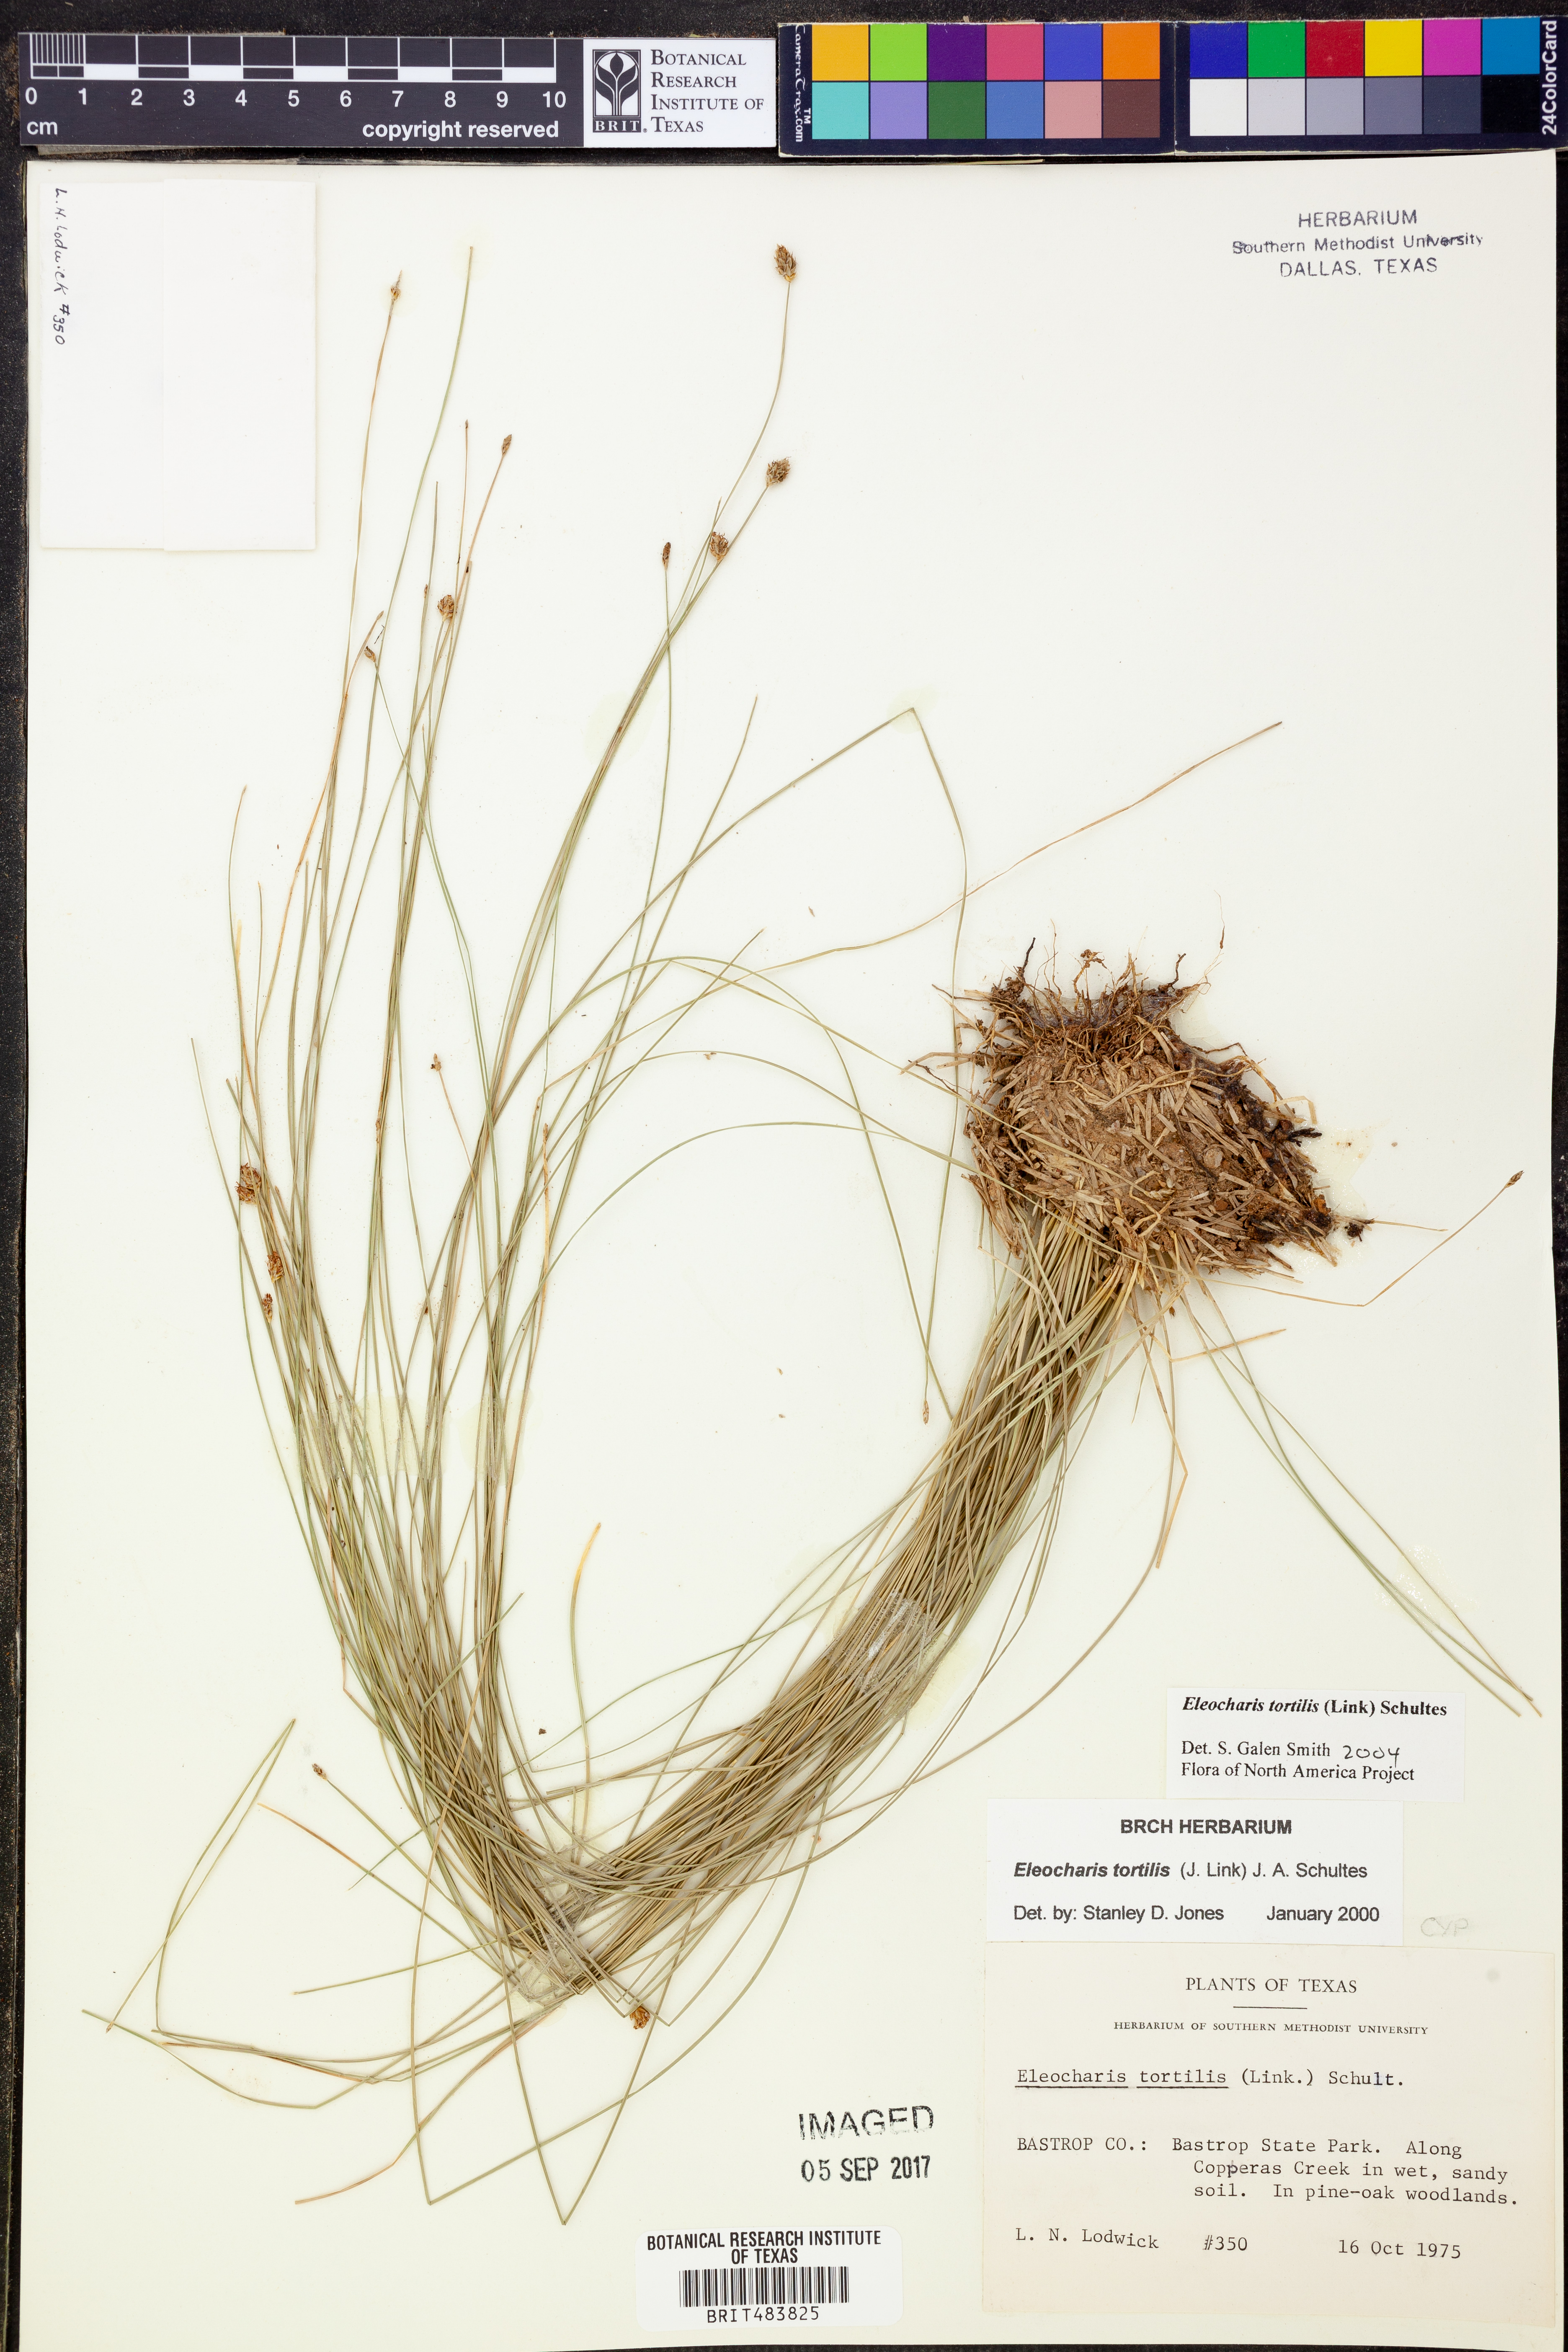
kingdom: Plantae
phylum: Tracheophyta
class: Liliopsida
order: Poales
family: Cyperaceae
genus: Eleocharis
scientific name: Eleocharis tortilis
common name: Twisted spike sedge
